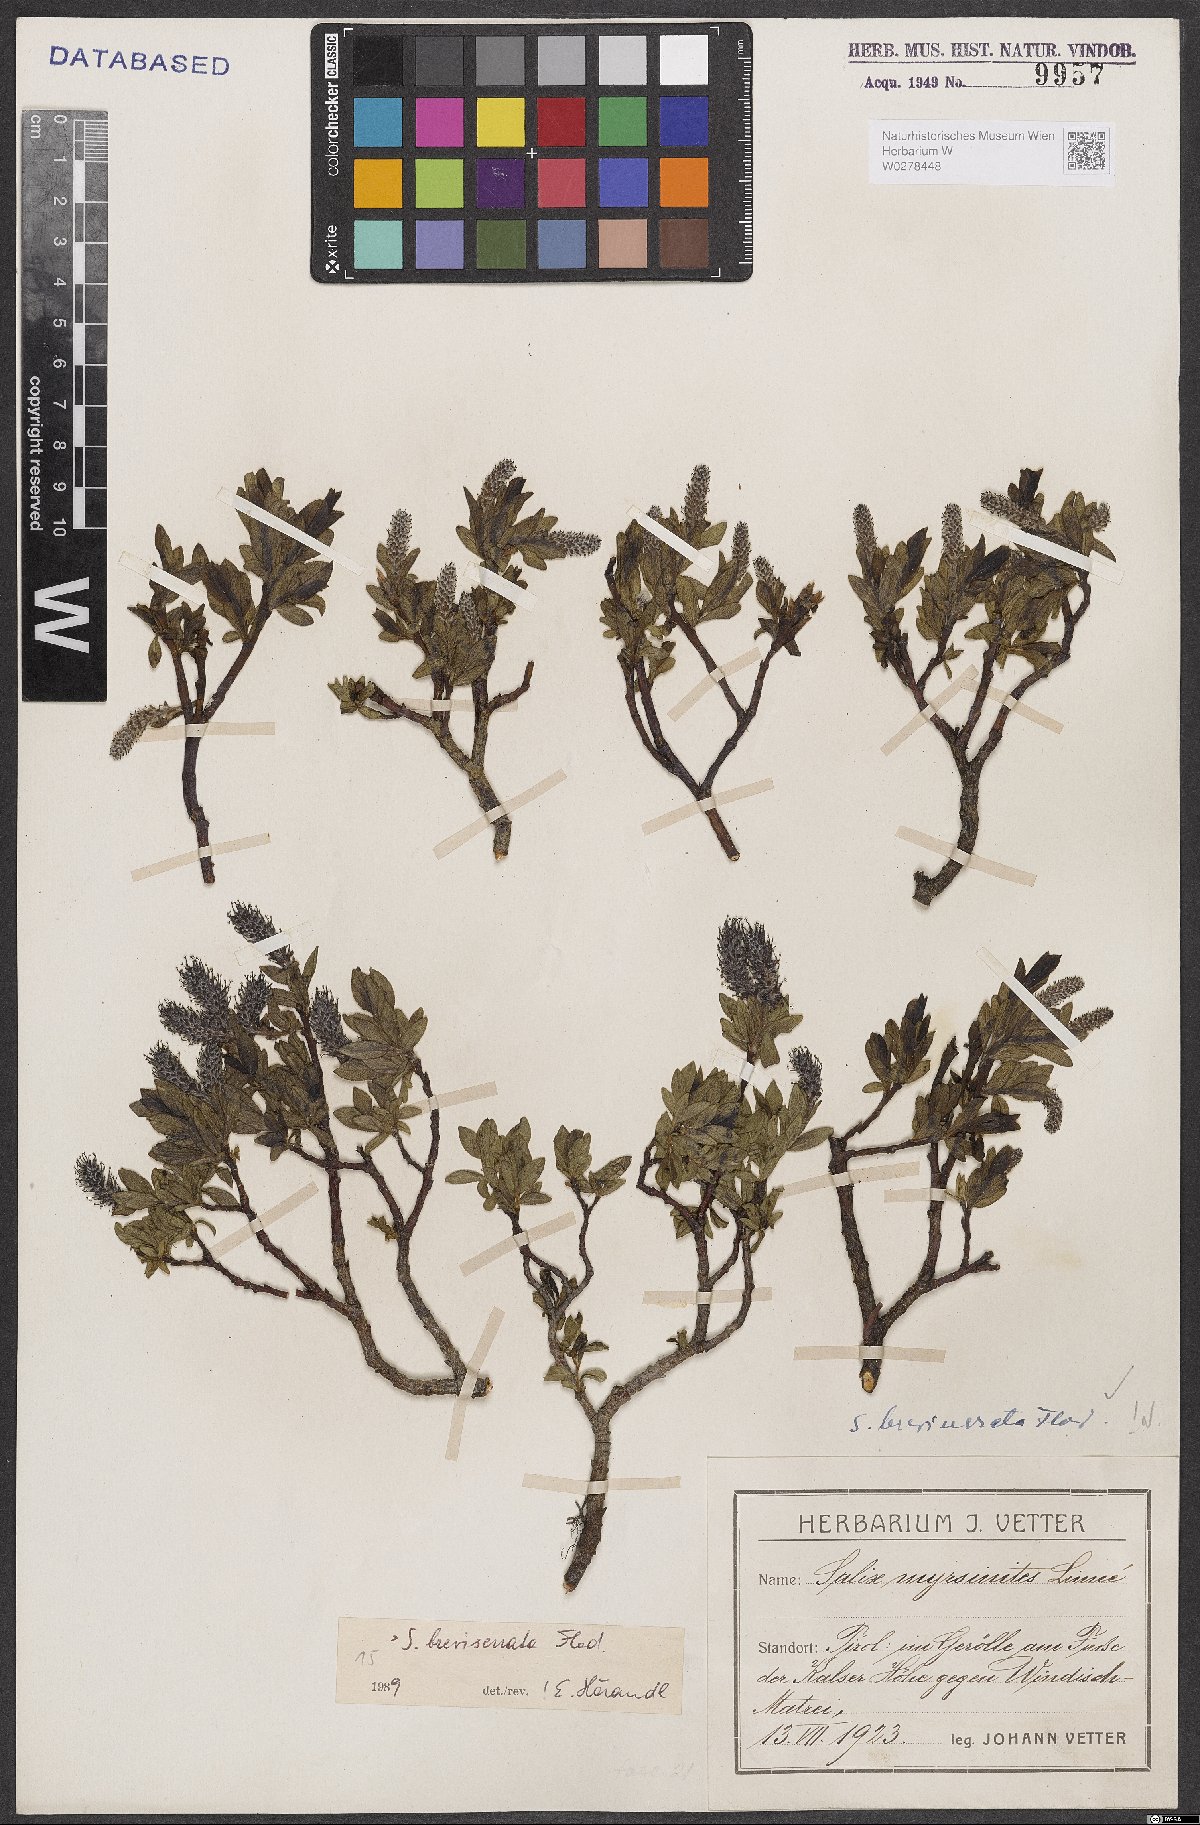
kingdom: Plantae
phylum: Tracheophyta
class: Magnoliopsida
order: Malpighiales
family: Salicaceae
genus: Salix
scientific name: Salix breviserrata
